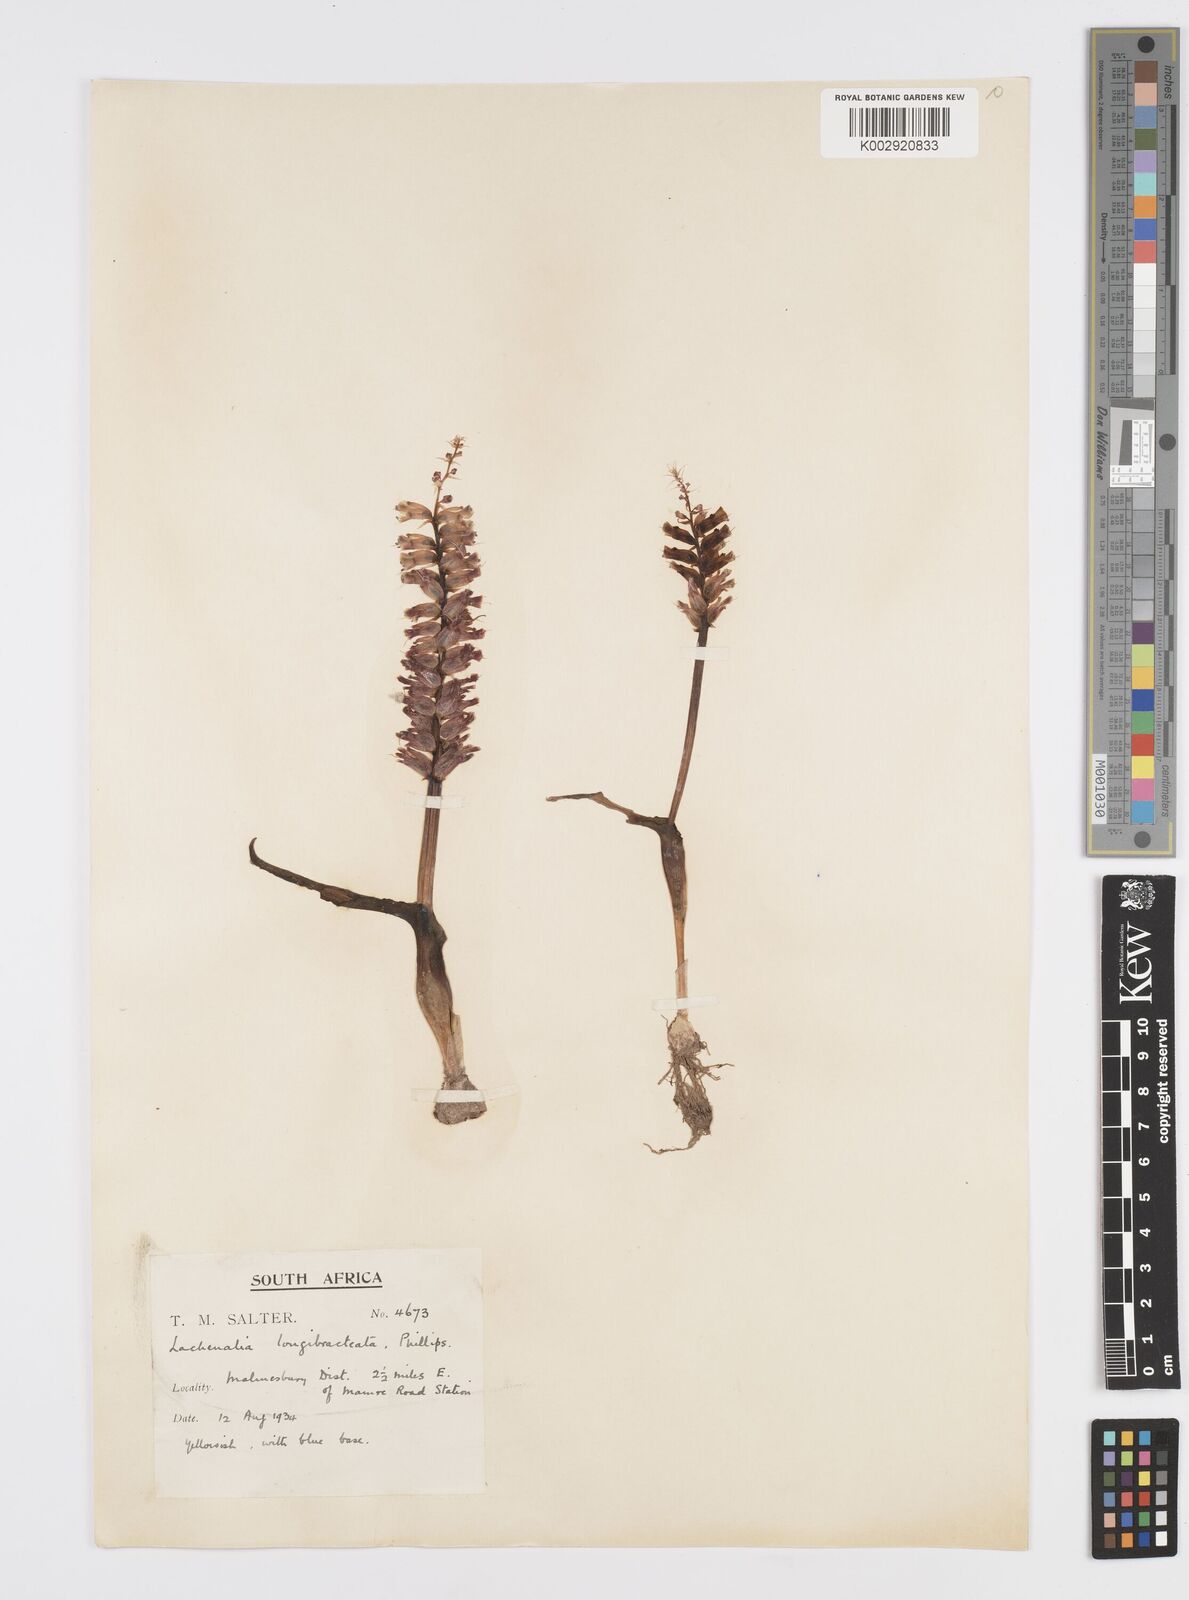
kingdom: Plantae
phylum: Tracheophyta
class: Liliopsida
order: Asparagales
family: Asparagaceae
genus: Lachenalia
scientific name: Lachenalia longibracteata
